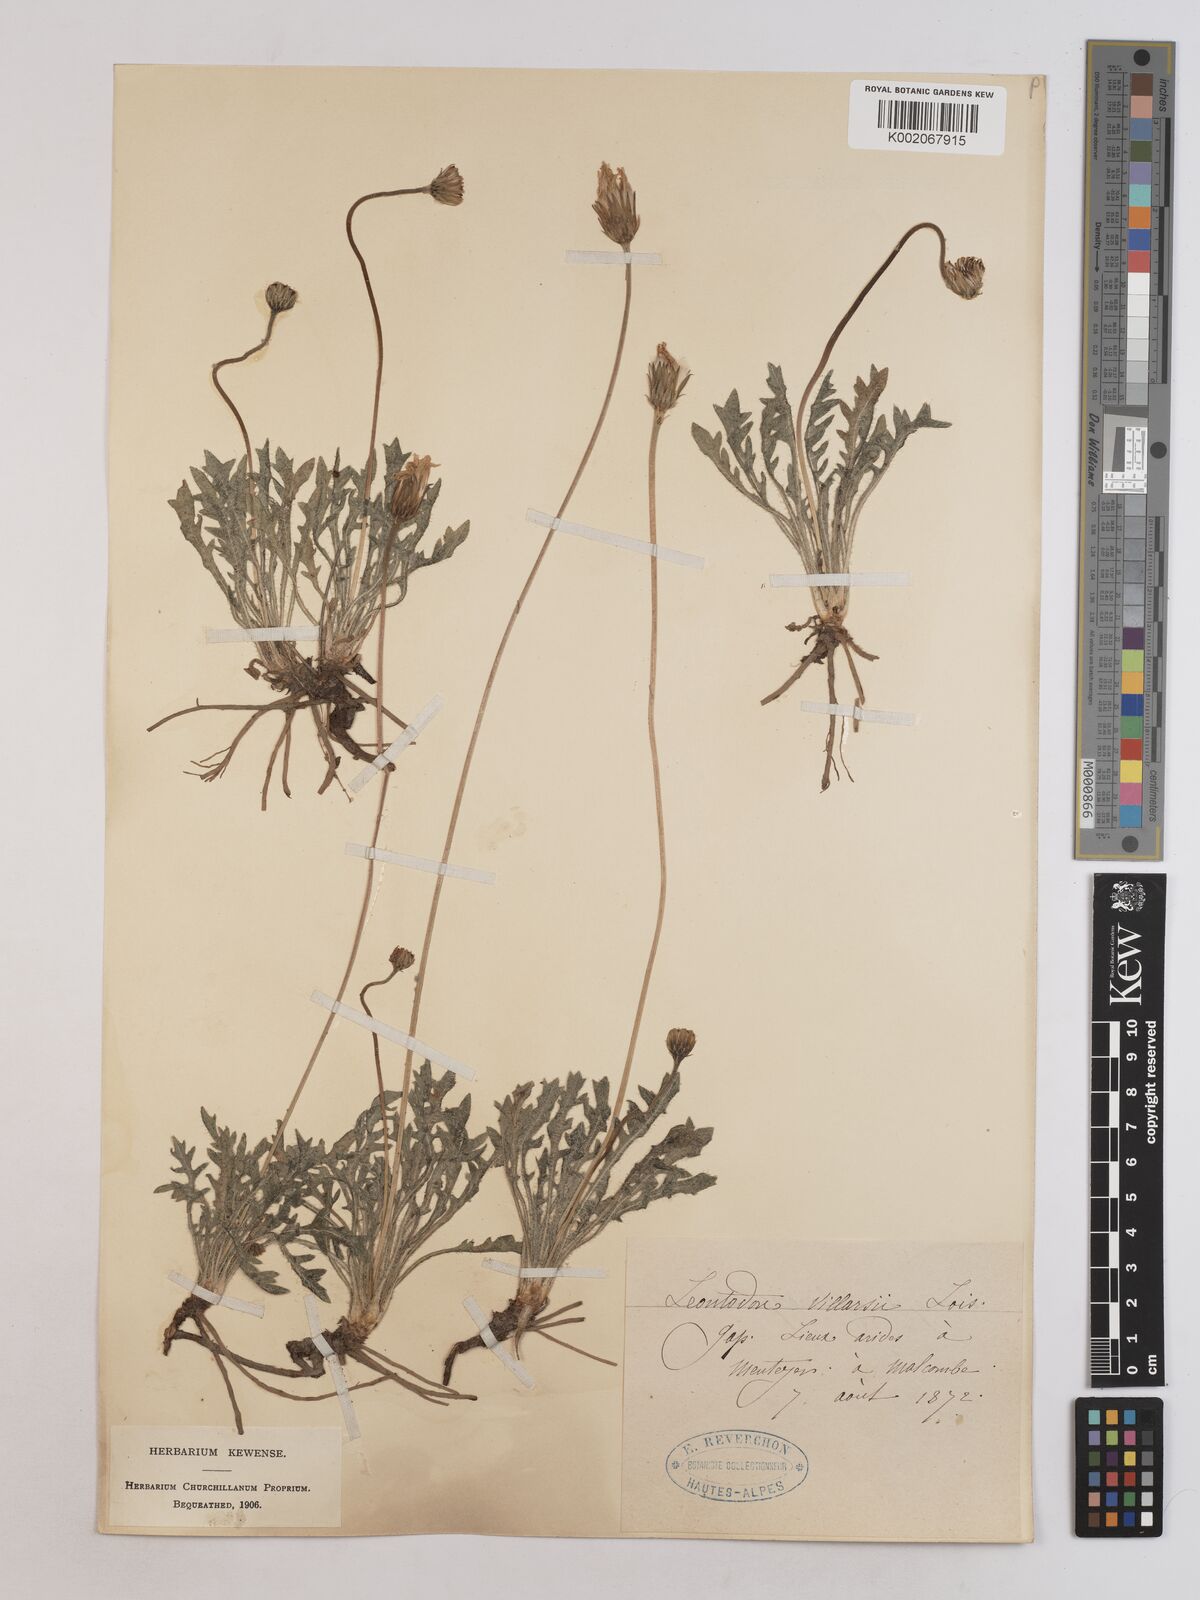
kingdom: Plantae
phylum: Tracheophyta
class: Magnoliopsida
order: Asterales
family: Asteraceae
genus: Leontodon
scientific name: Leontodon hirtus
